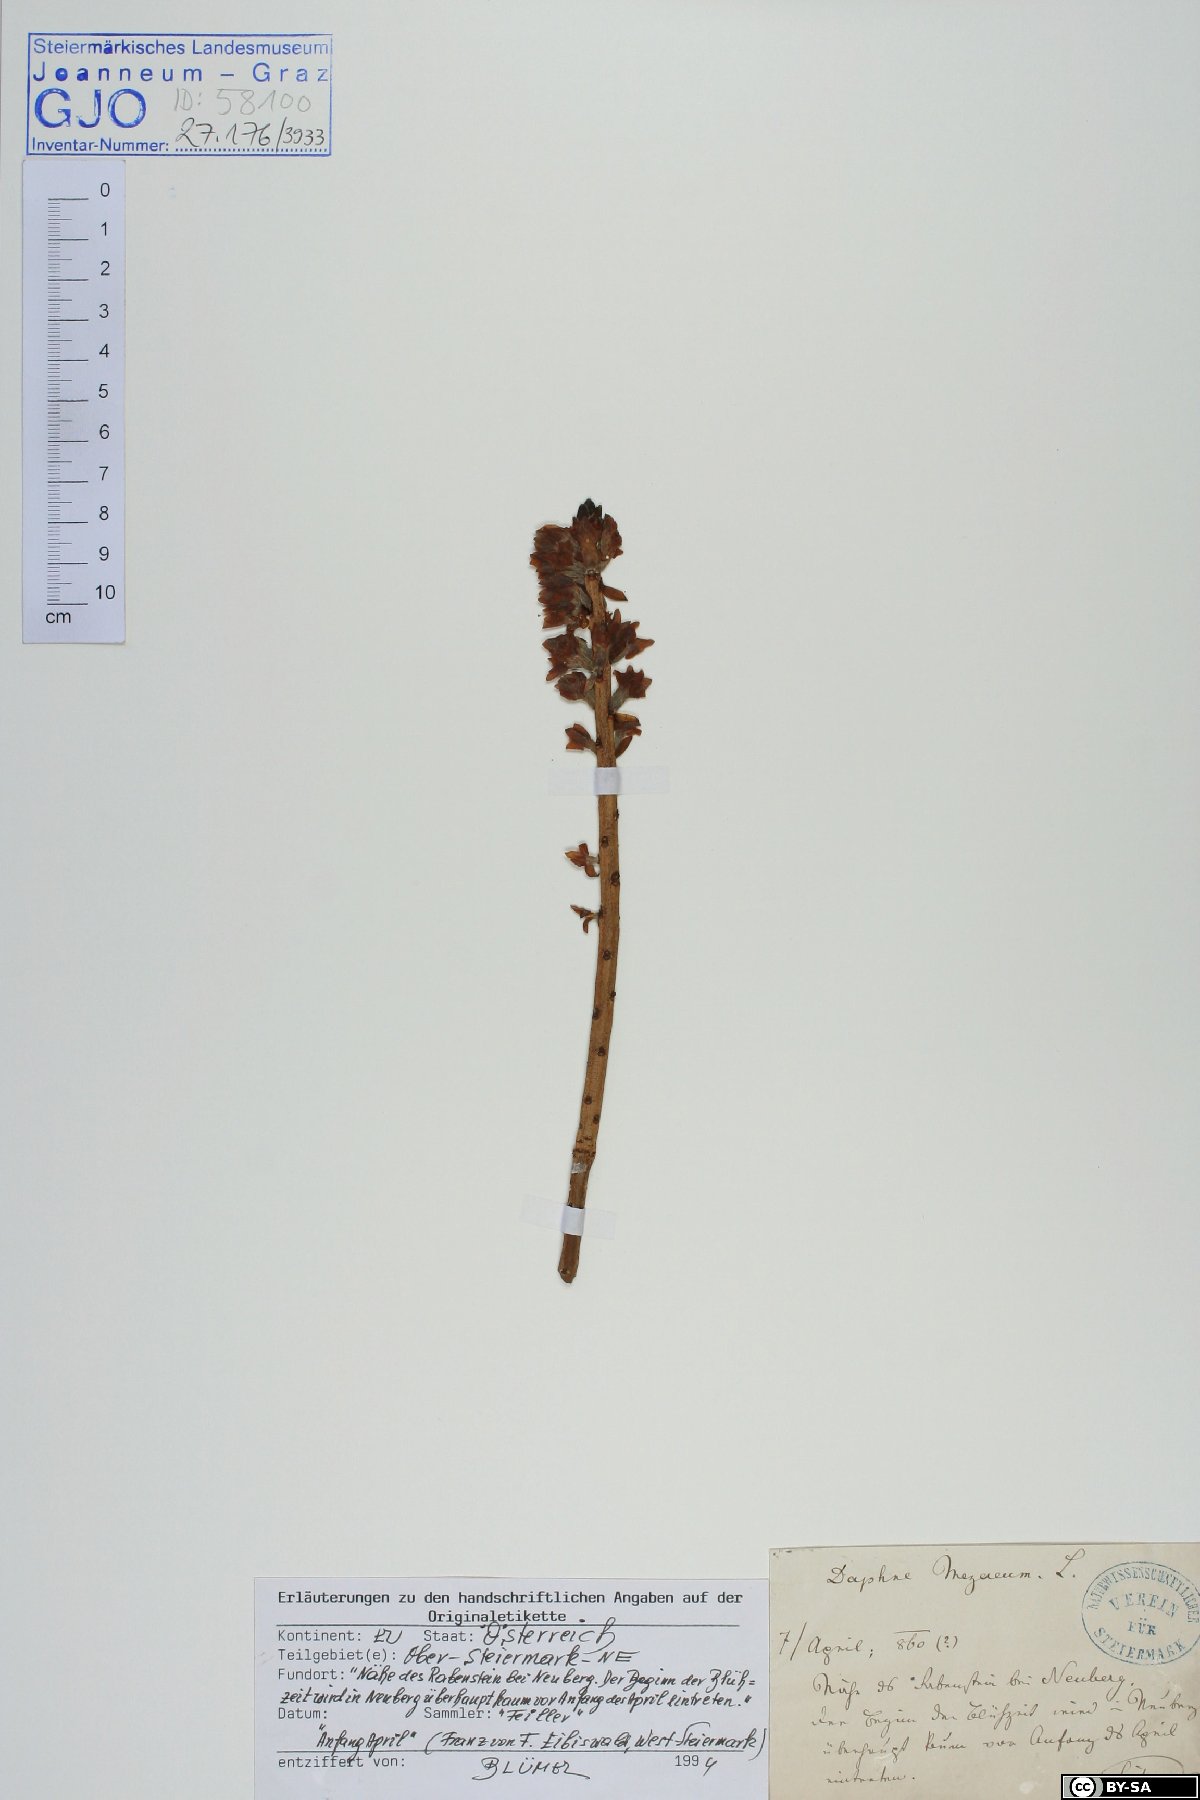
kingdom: Plantae
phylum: Tracheophyta
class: Magnoliopsida
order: Malvales
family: Thymelaeaceae
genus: Daphne
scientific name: Daphne mezereum
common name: Mezereon
